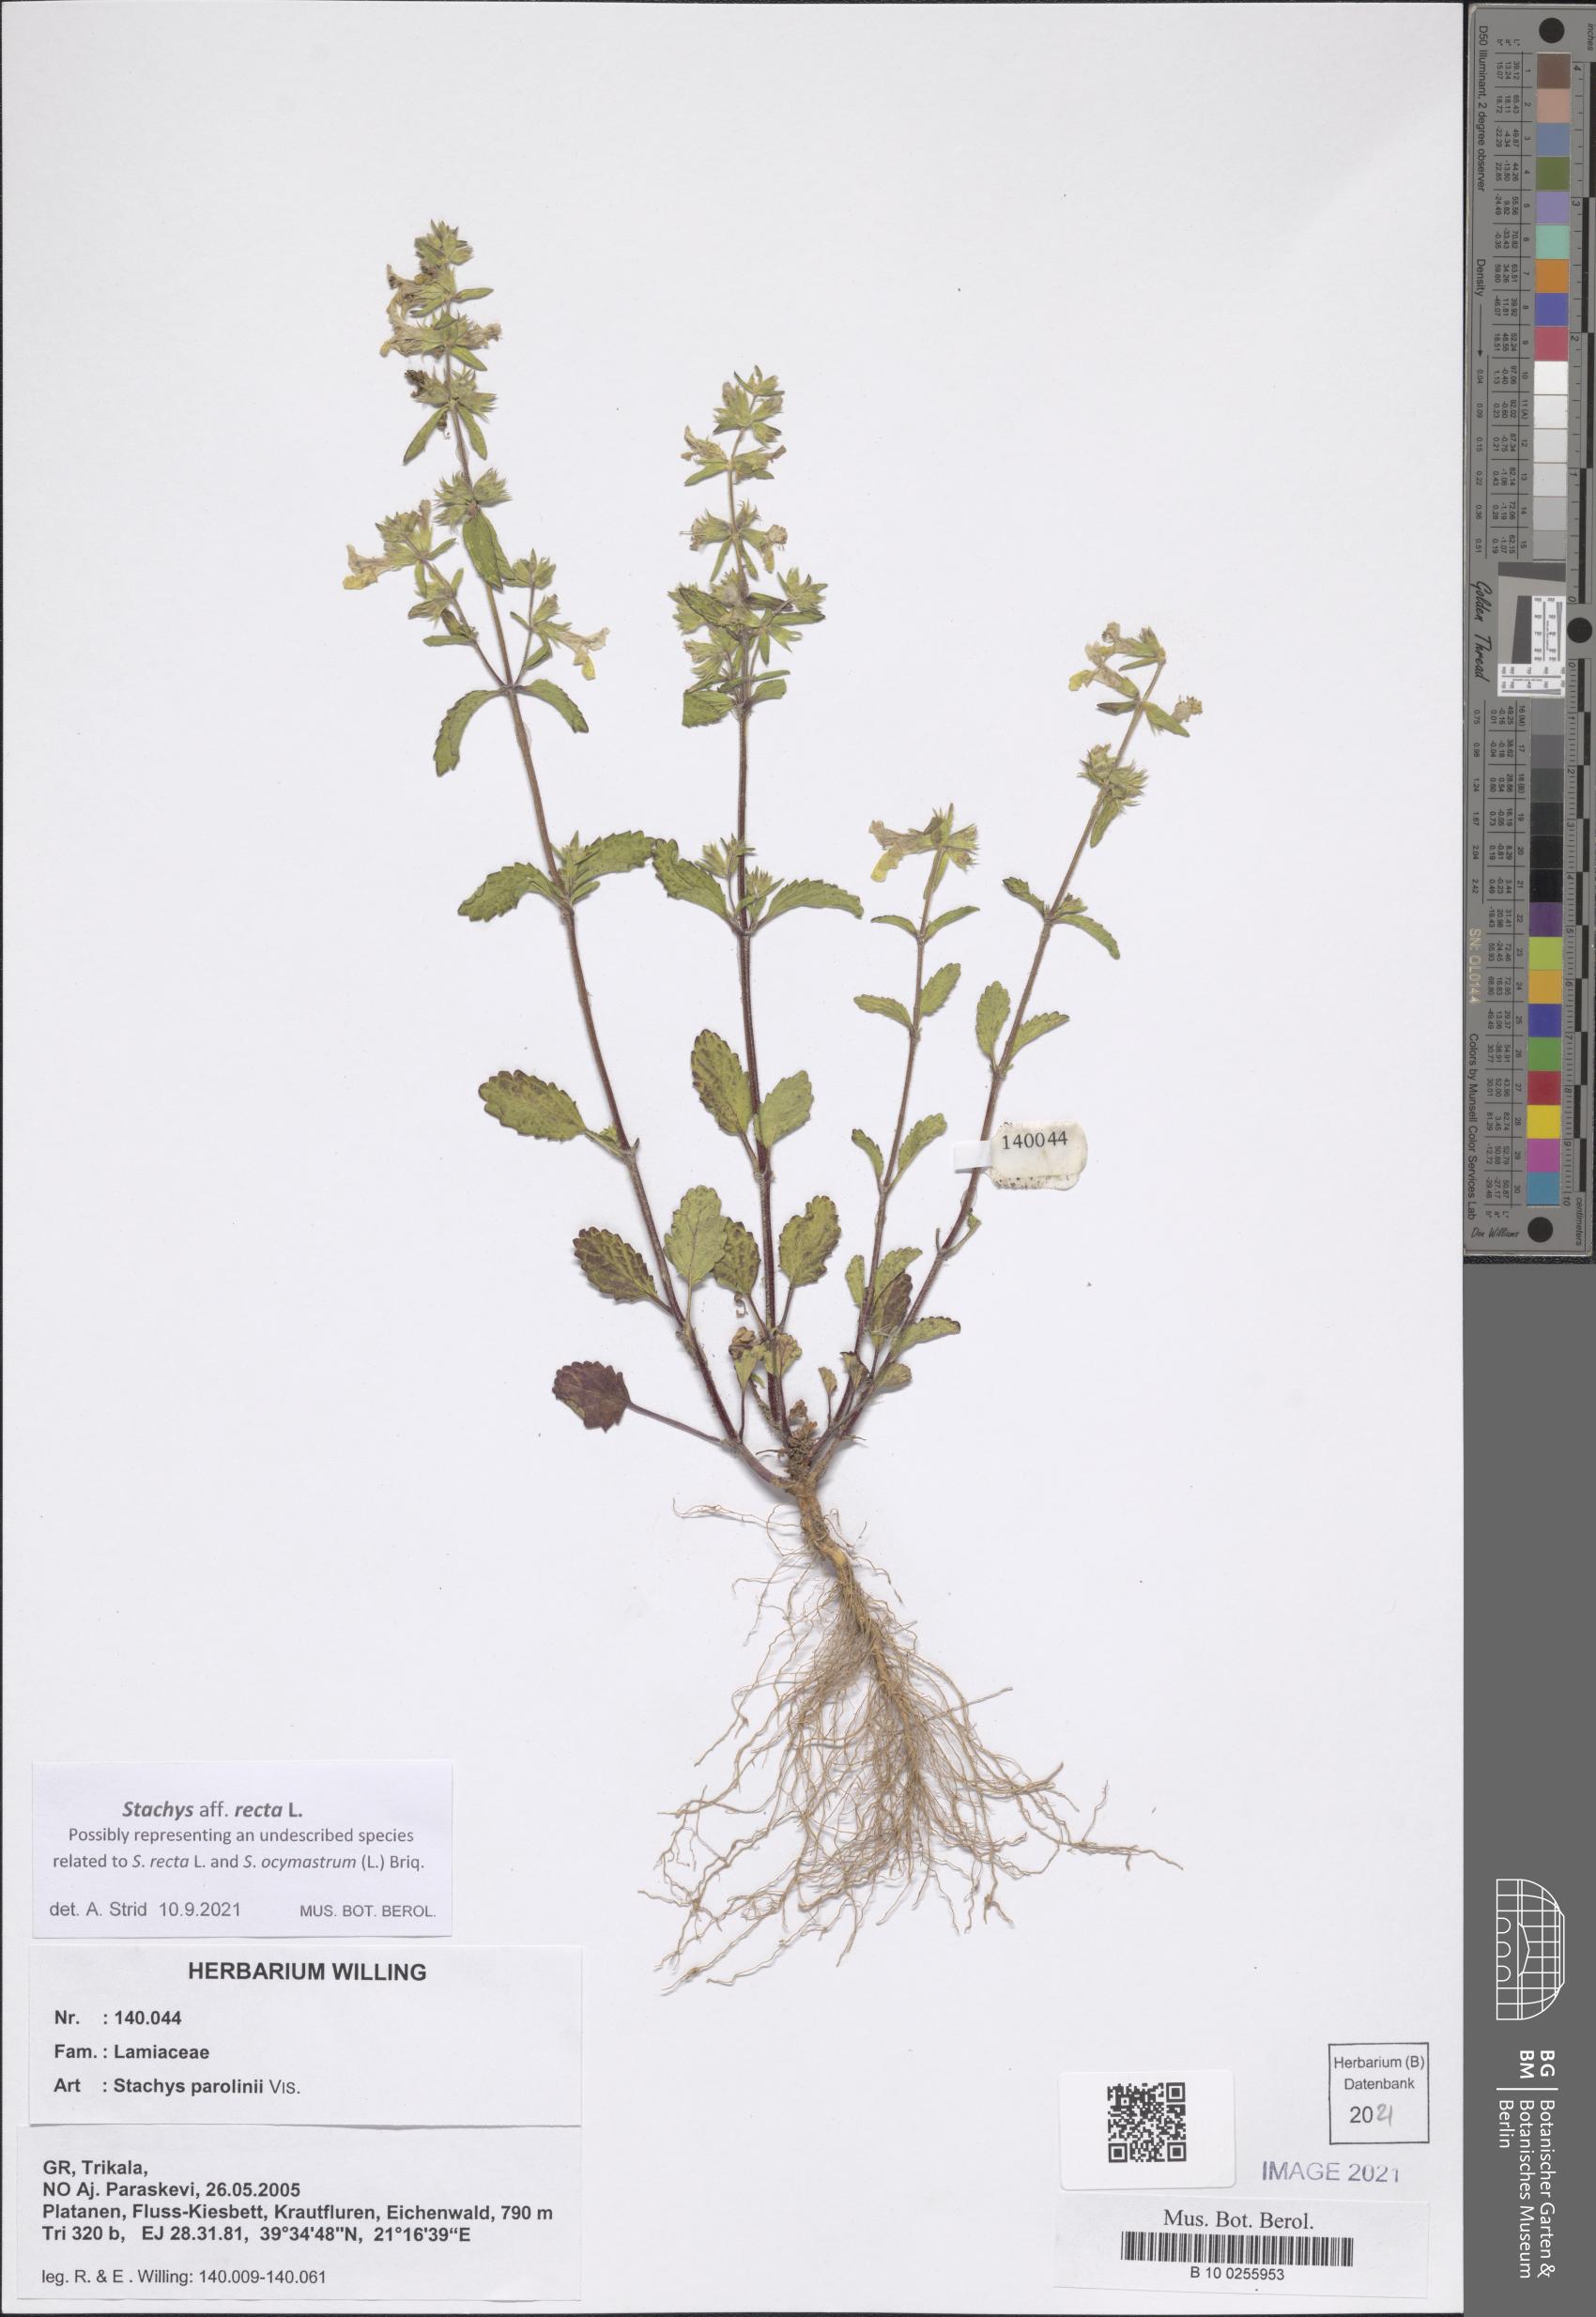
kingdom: Plantae
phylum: Tracheophyta
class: Magnoliopsida
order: Lamiales
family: Lamiaceae
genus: Stachys
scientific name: Stachys recta
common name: Perennial yellow-woundwort
